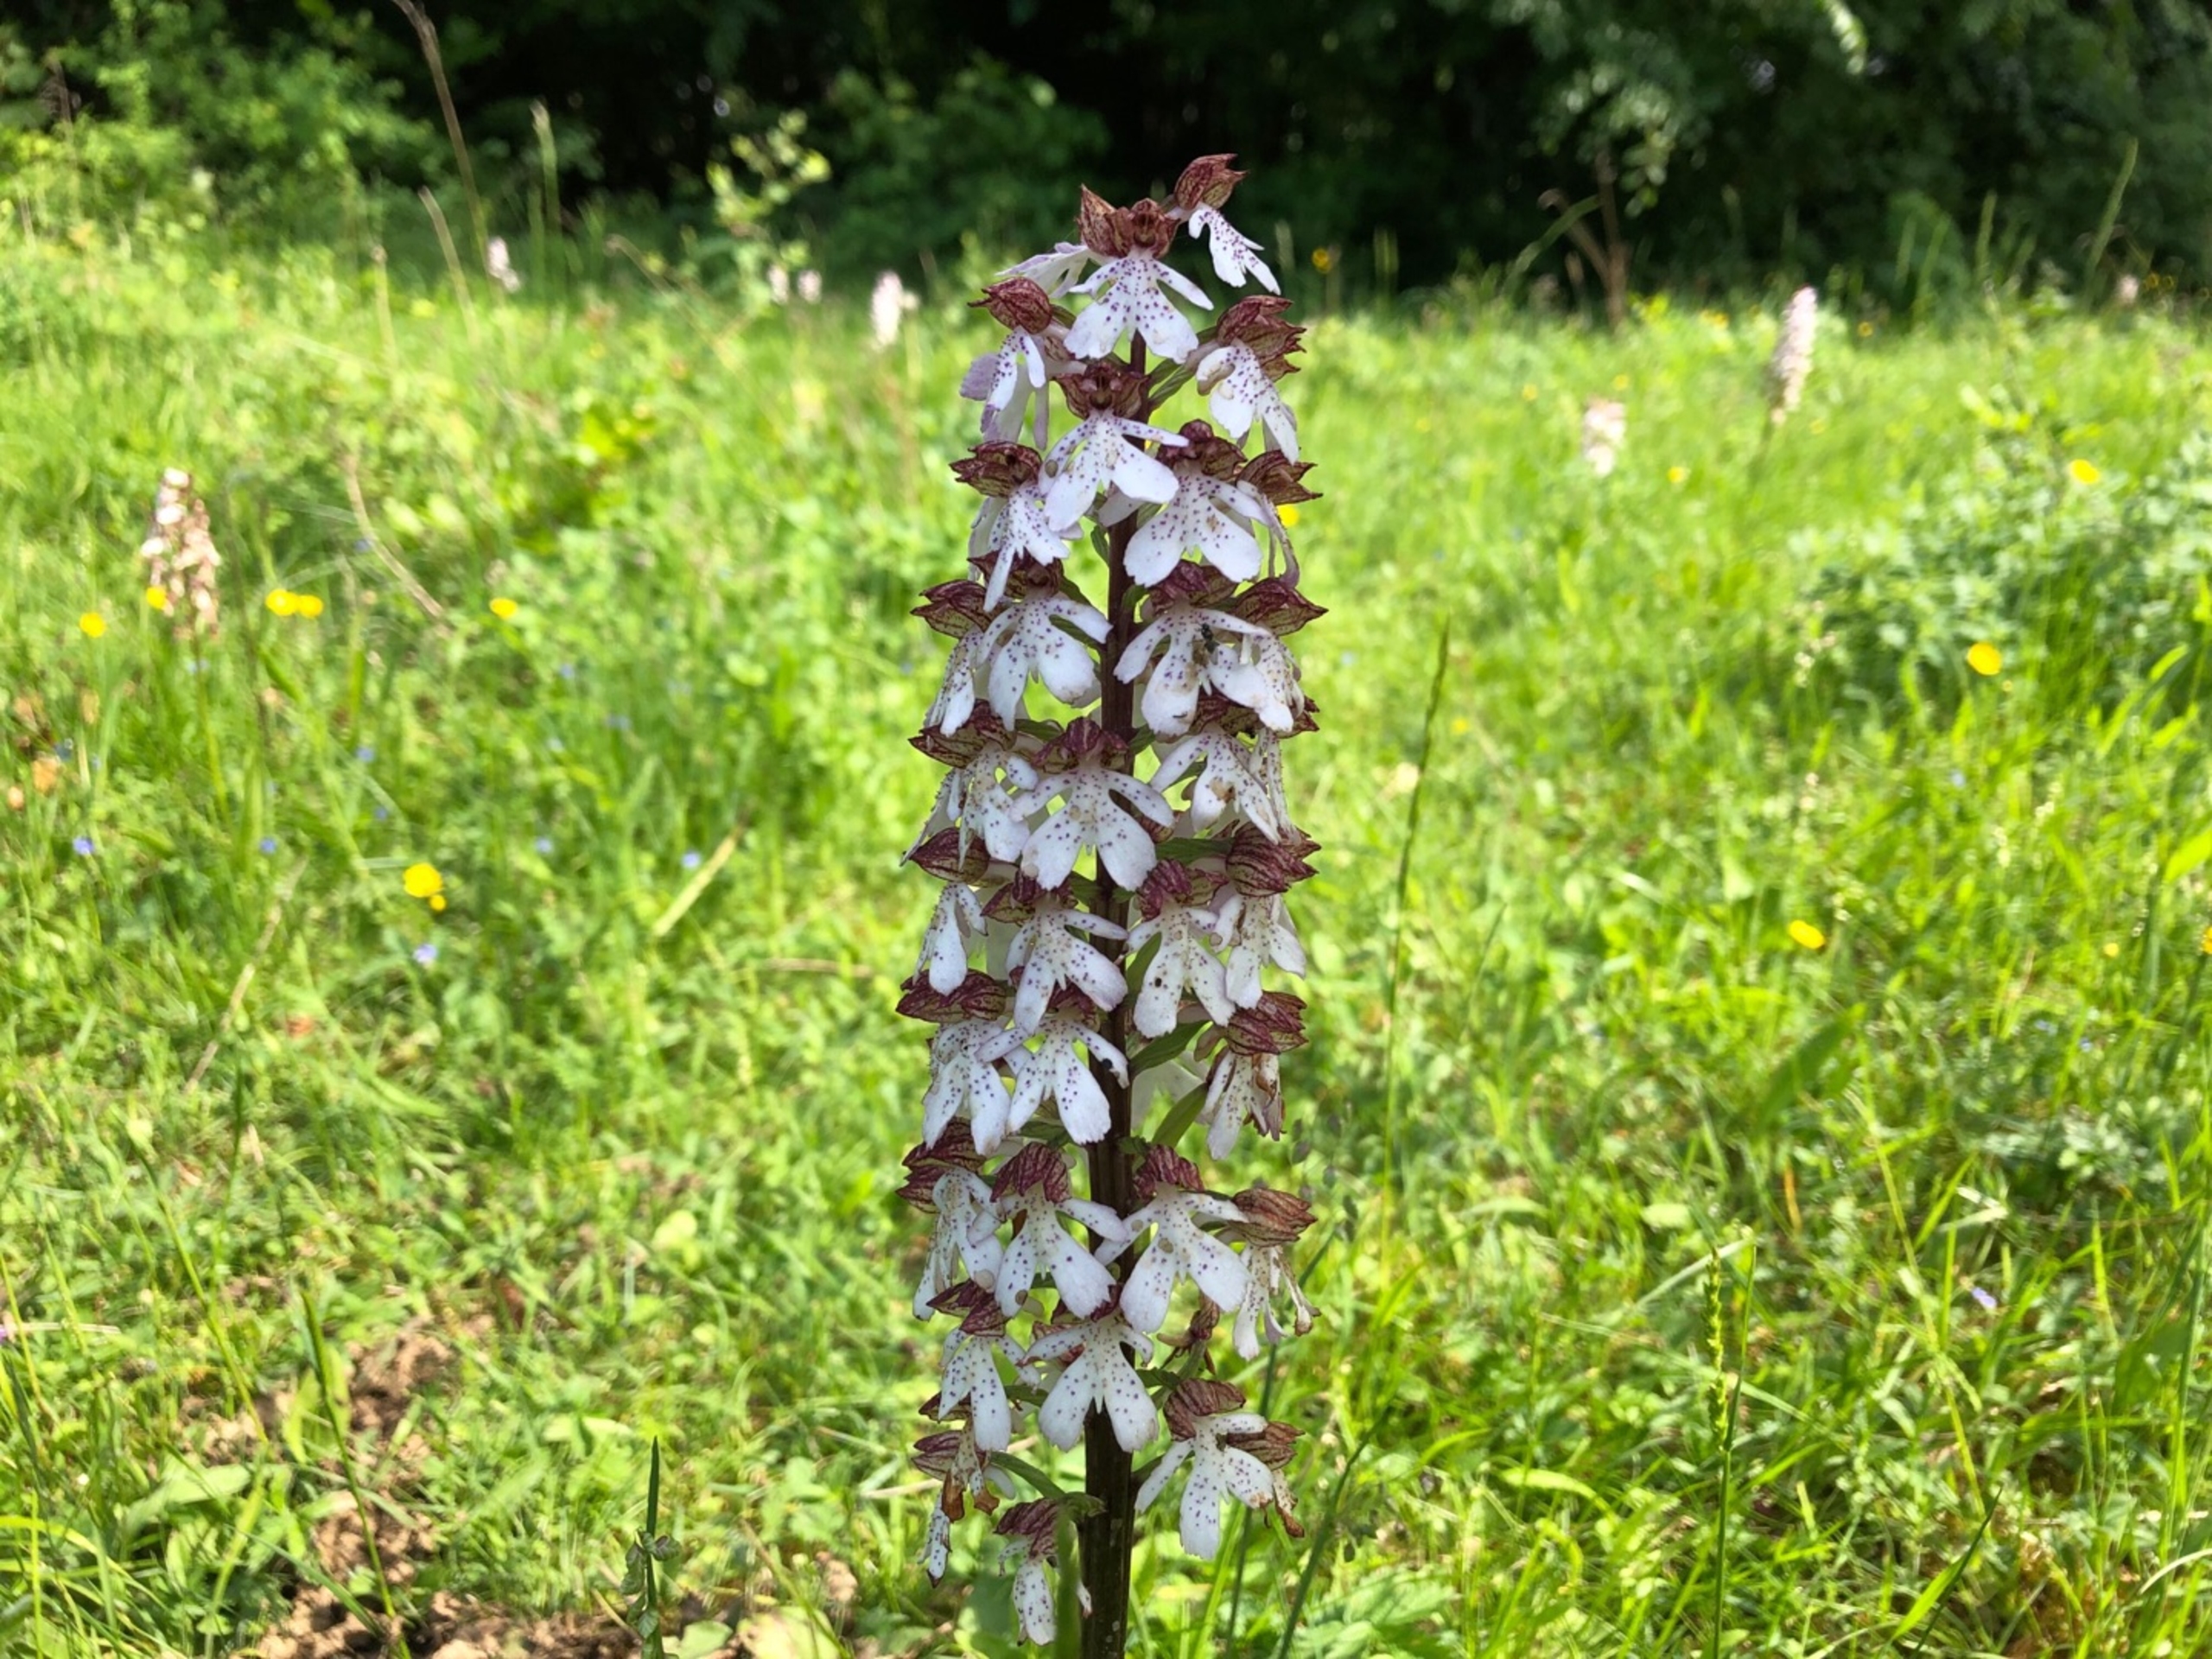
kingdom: Plantae
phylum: Tracheophyta
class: Liliopsida
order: Asparagales
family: Orchidaceae
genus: Orchis
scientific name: Orchis purpurea
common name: Stor gøgeurt
